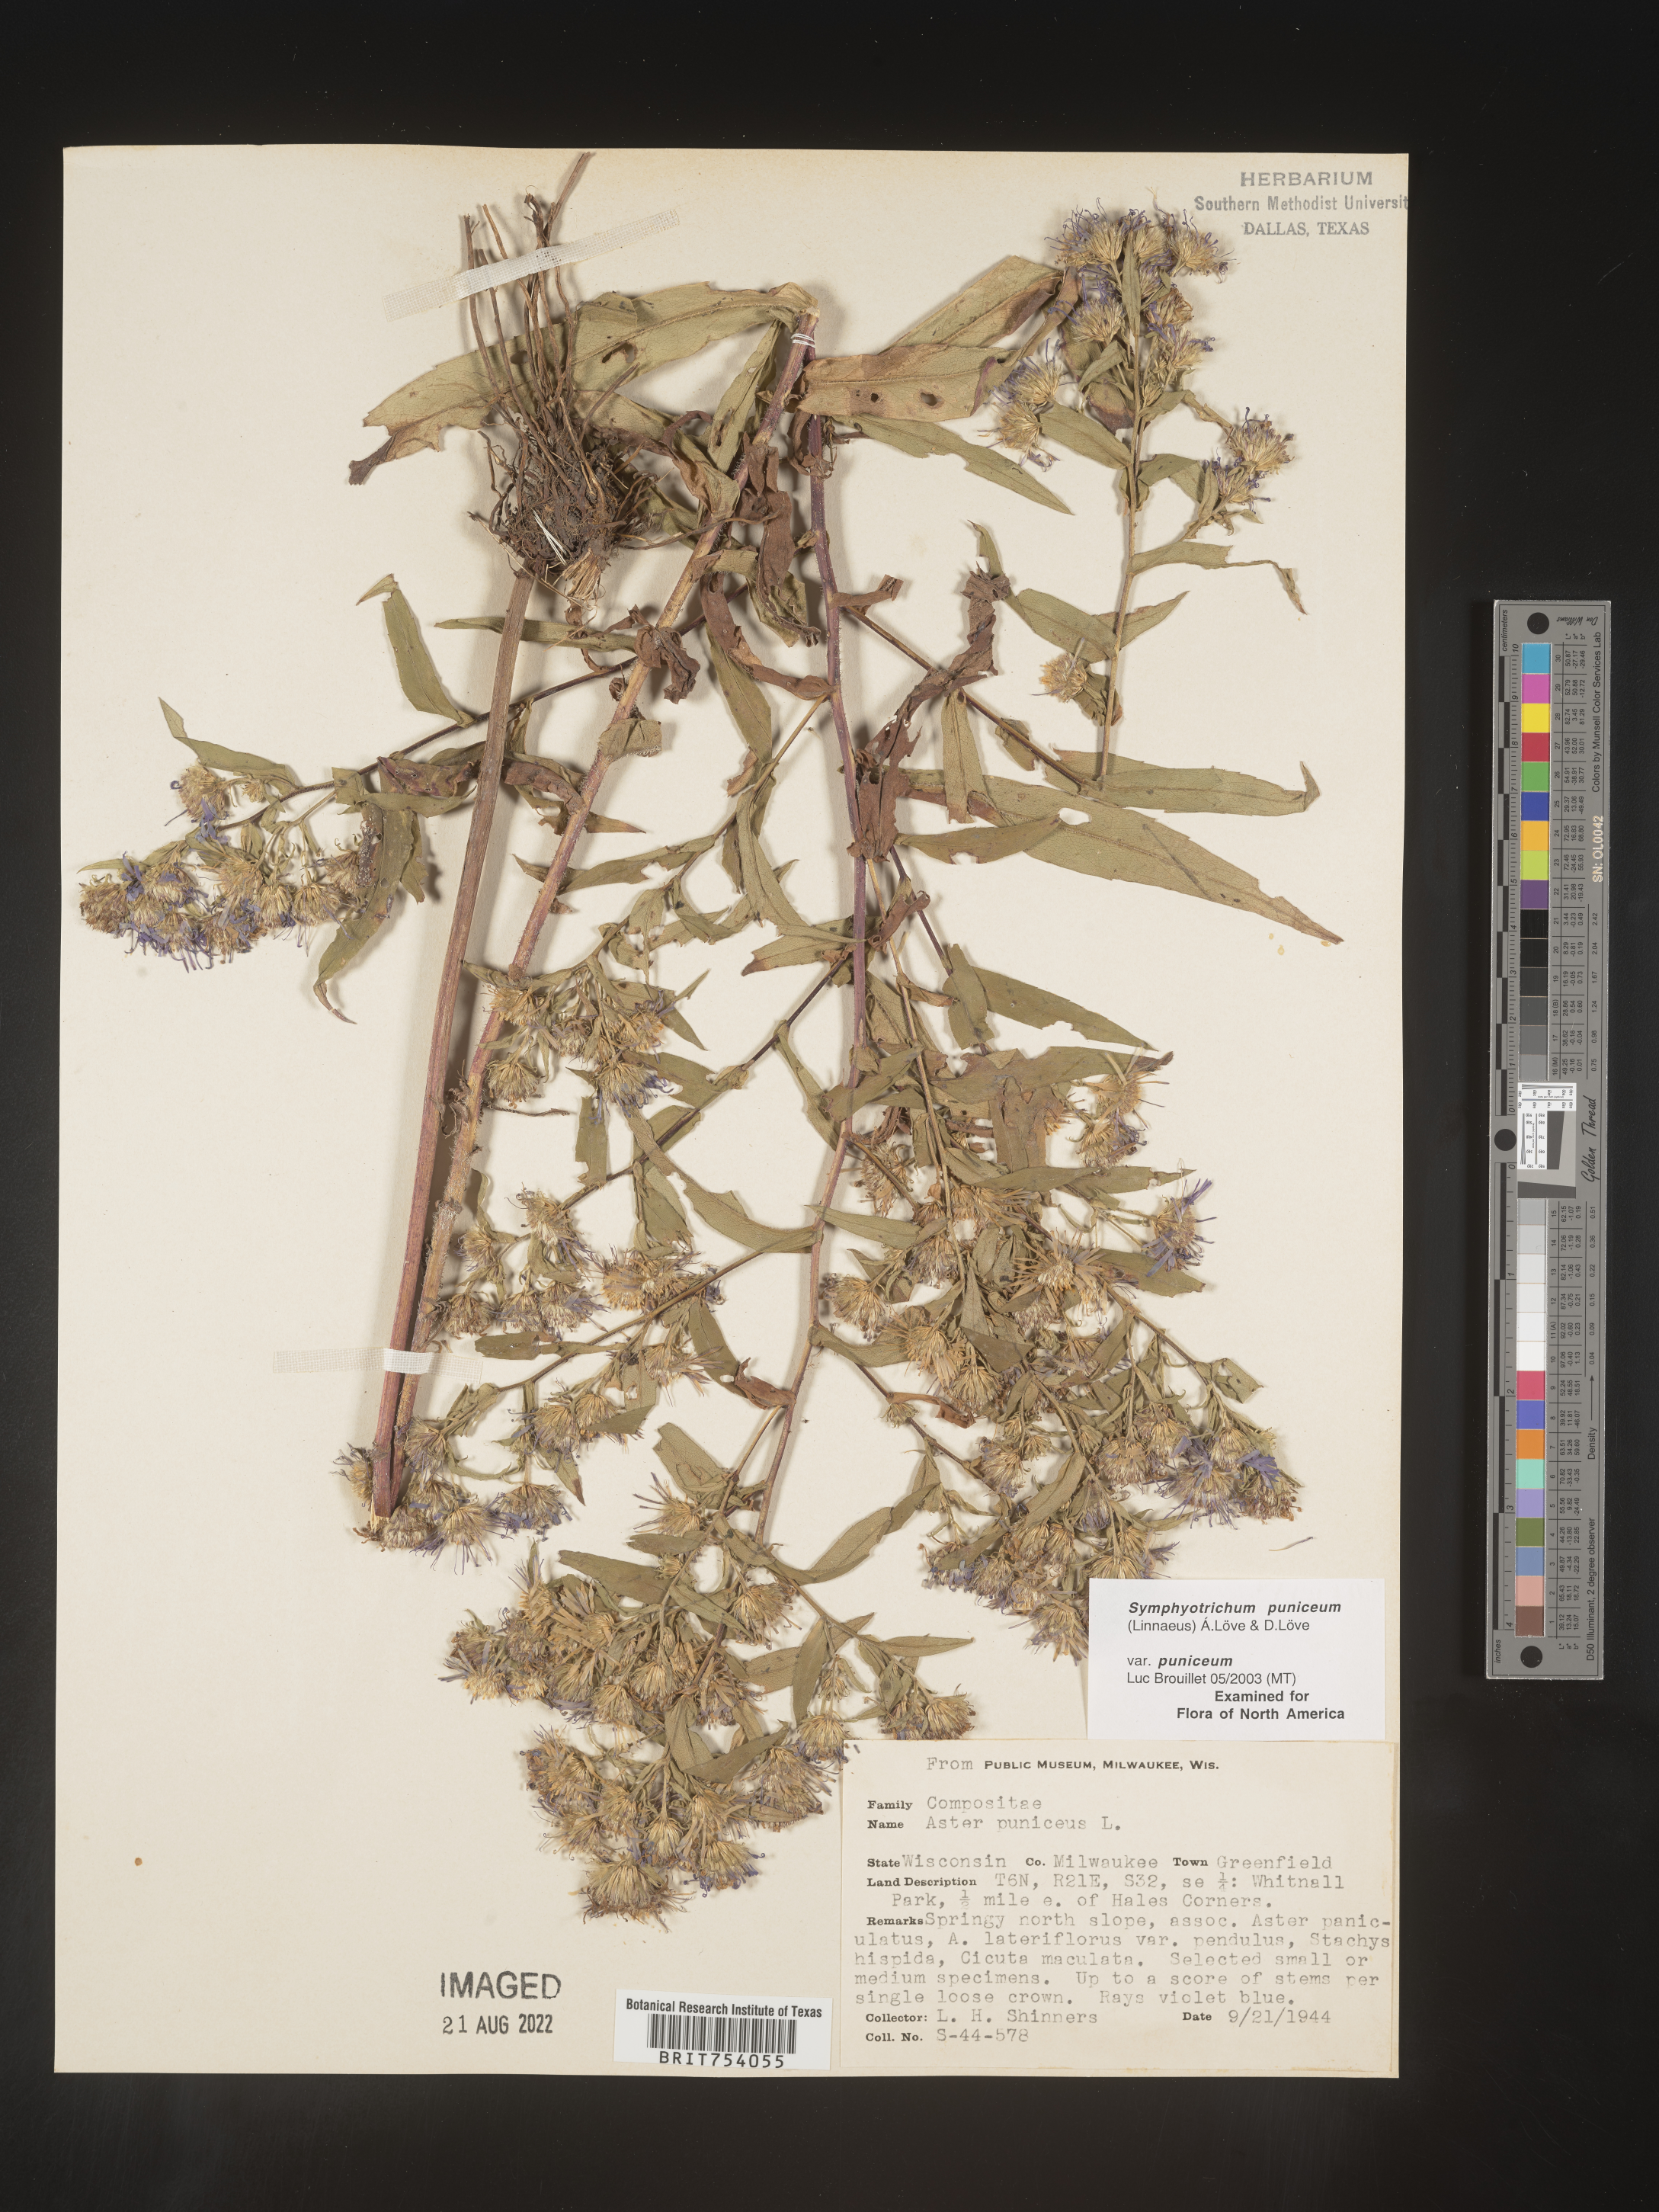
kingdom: Plantae
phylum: Tracheophyta
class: Magnoliopsida
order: Asterales
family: Asteraceae
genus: Symphyotrichum
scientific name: Symphyotrichum puniceum
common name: Bog aster
